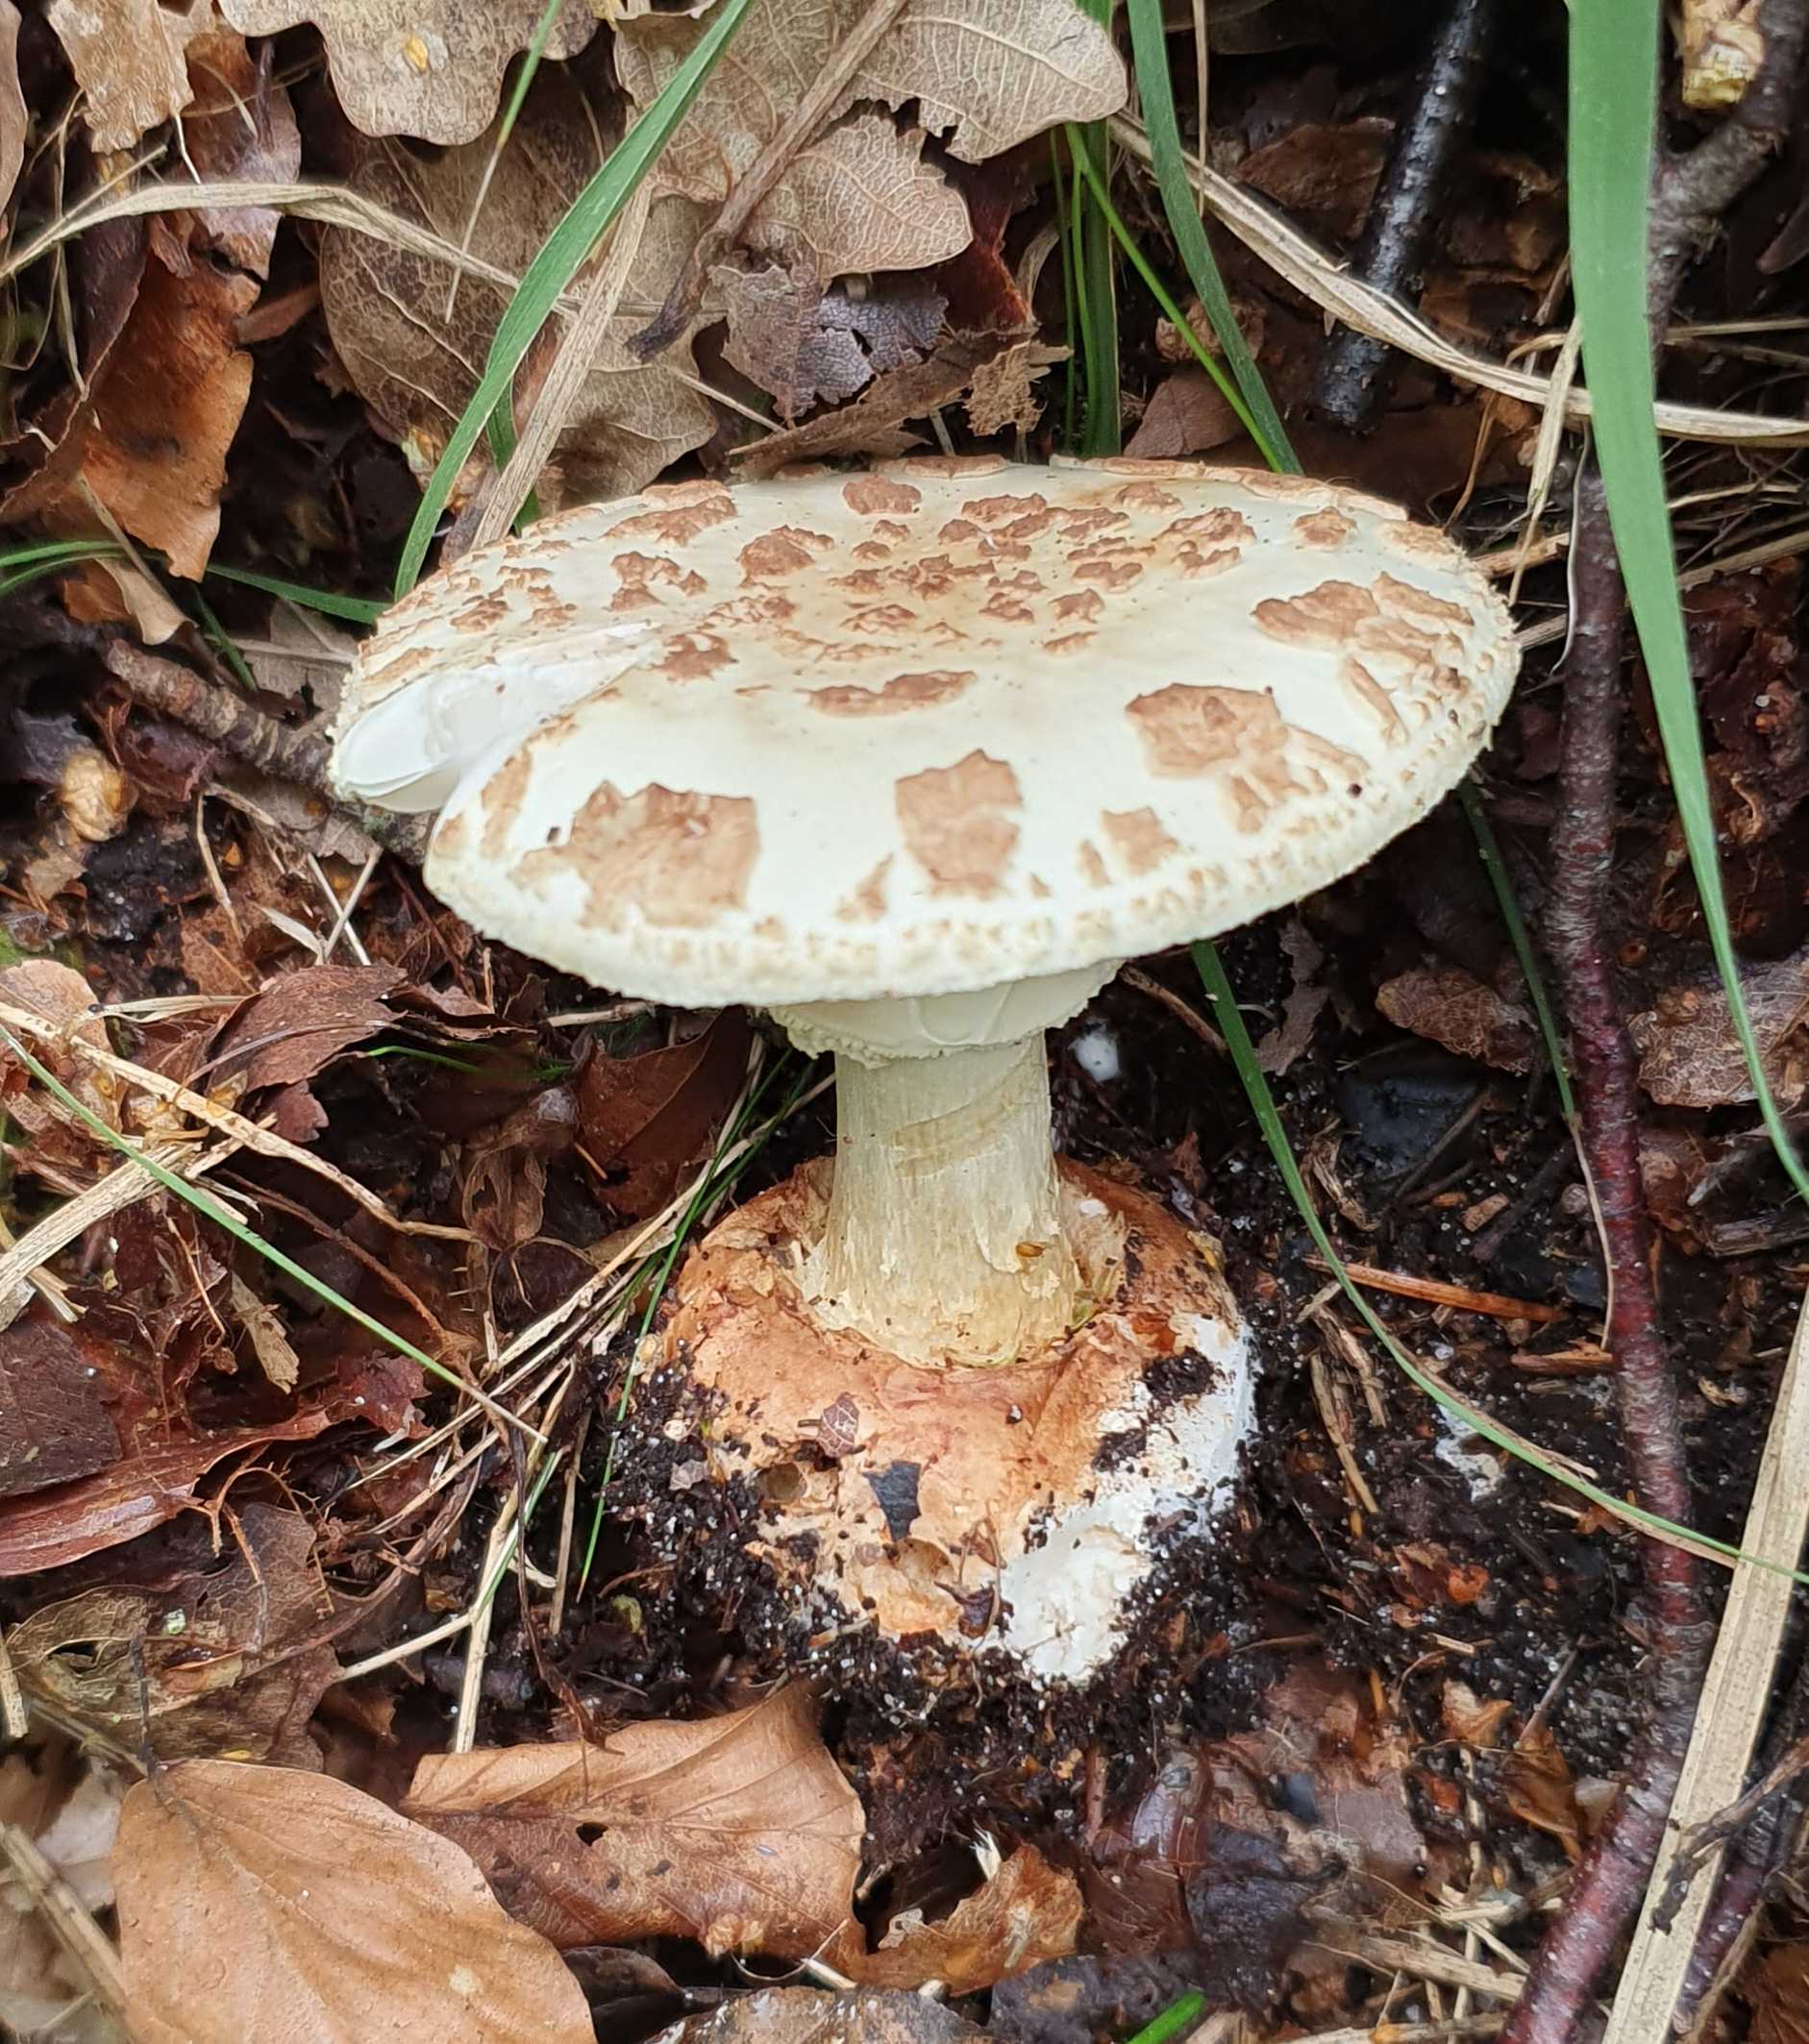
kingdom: Fungi
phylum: Basidiomycota
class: Agaricomycetes
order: Agaricales
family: Amanitaceae
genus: Amanita
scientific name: Amanita citrina
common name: kugleknoldet fluesvamp
